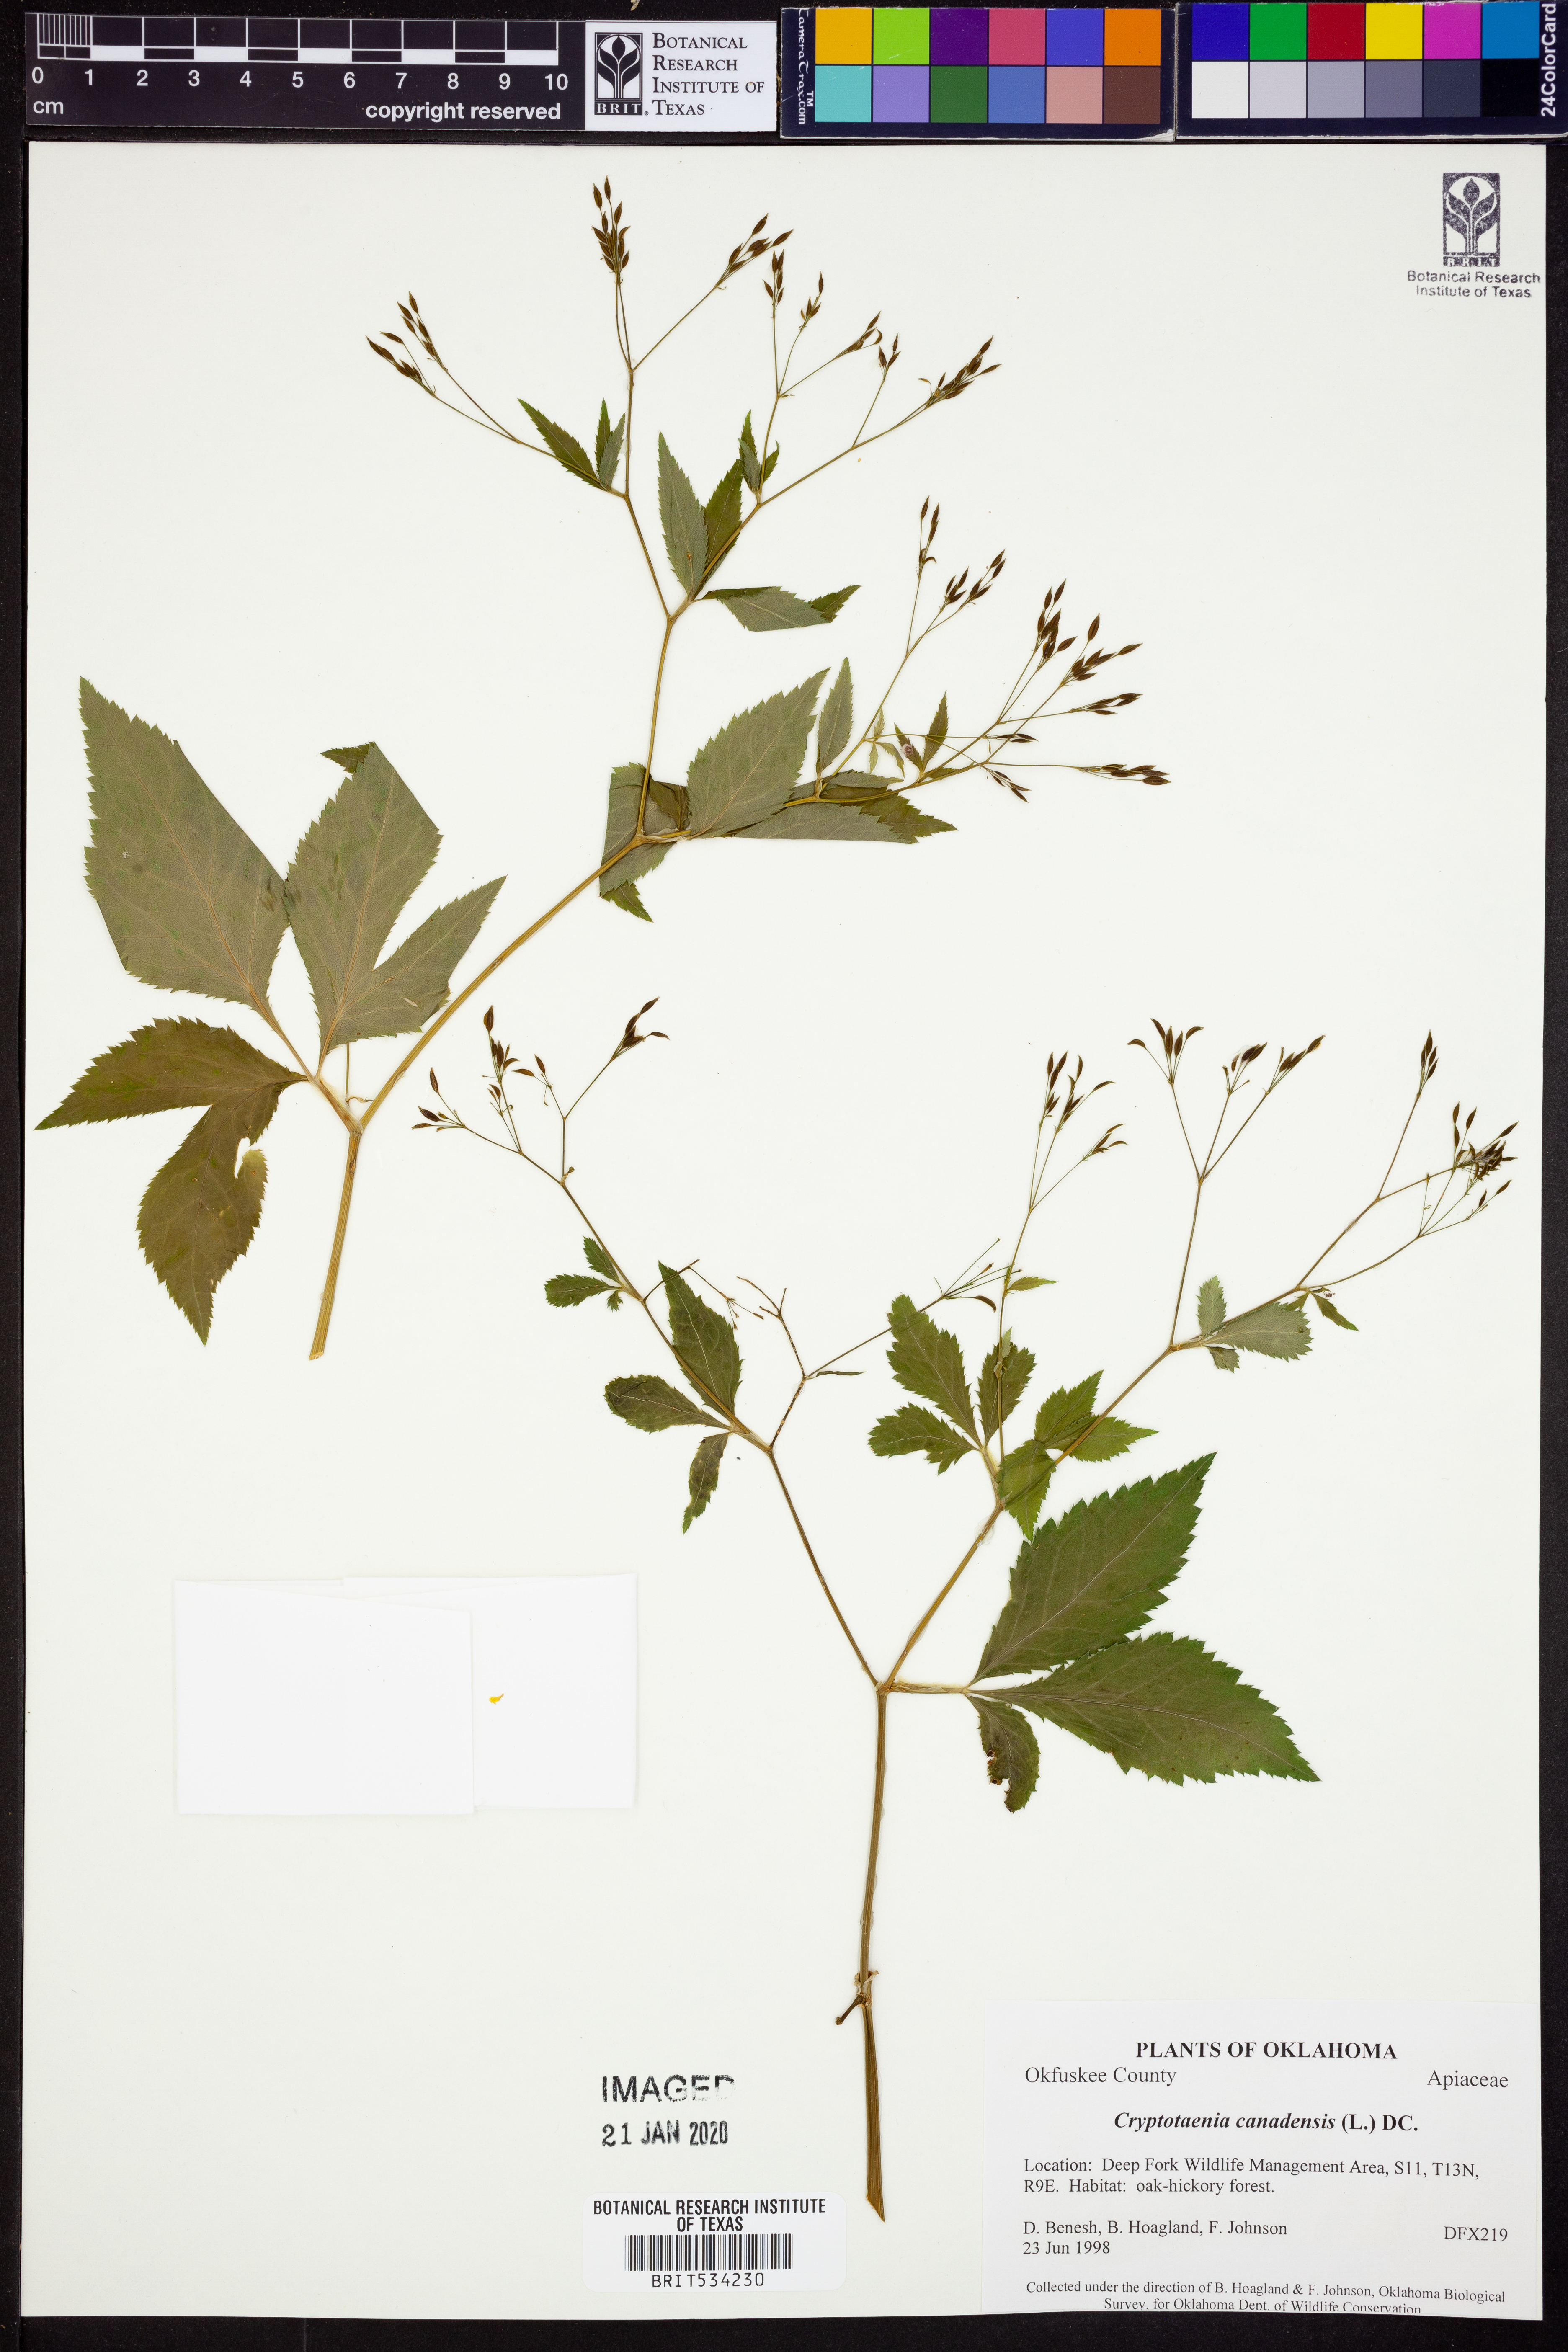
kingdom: Plantae
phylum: Tracheophyta
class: Magnoliopsida
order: Apiales
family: Apiaceae
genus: Cryptotaenia
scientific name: Cryptotaenia canadensis
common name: Honewort
